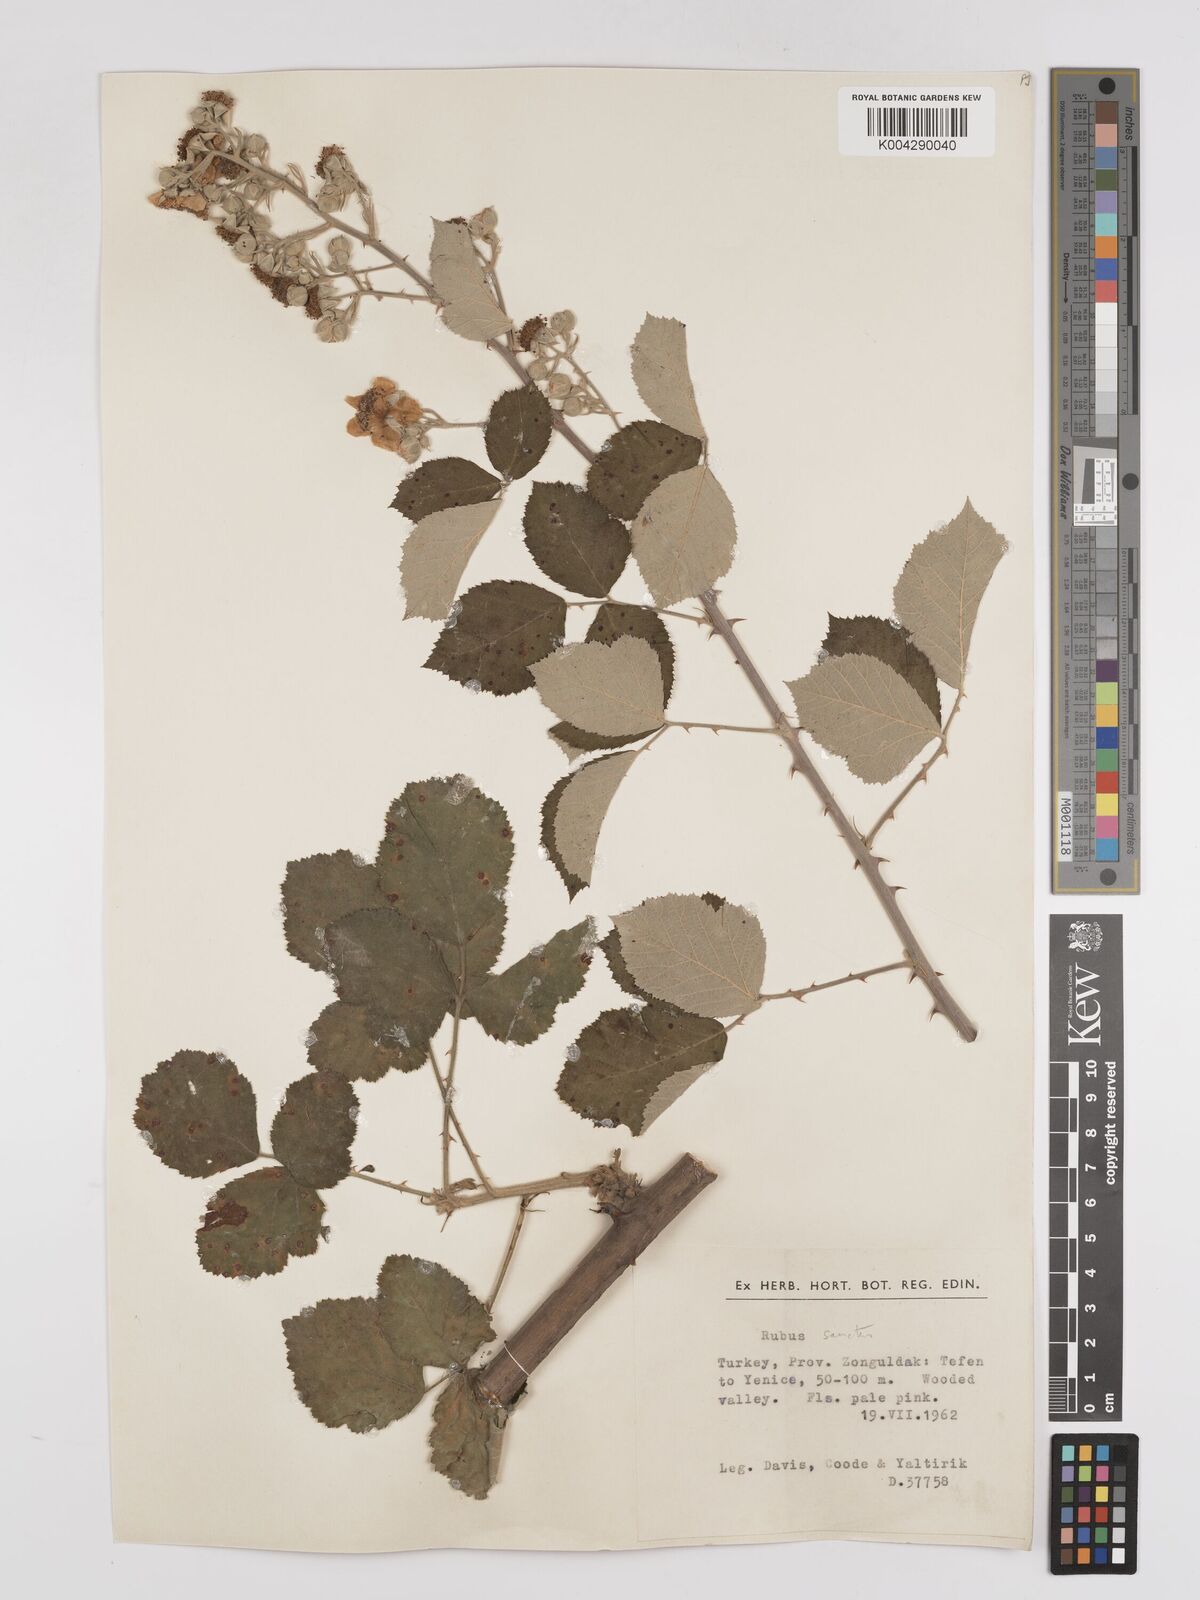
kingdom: Plantae
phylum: Tracheophyta
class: Magnoliopsida
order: Rosales
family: Rosaceae
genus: Rubus
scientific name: Rubus sanctus
